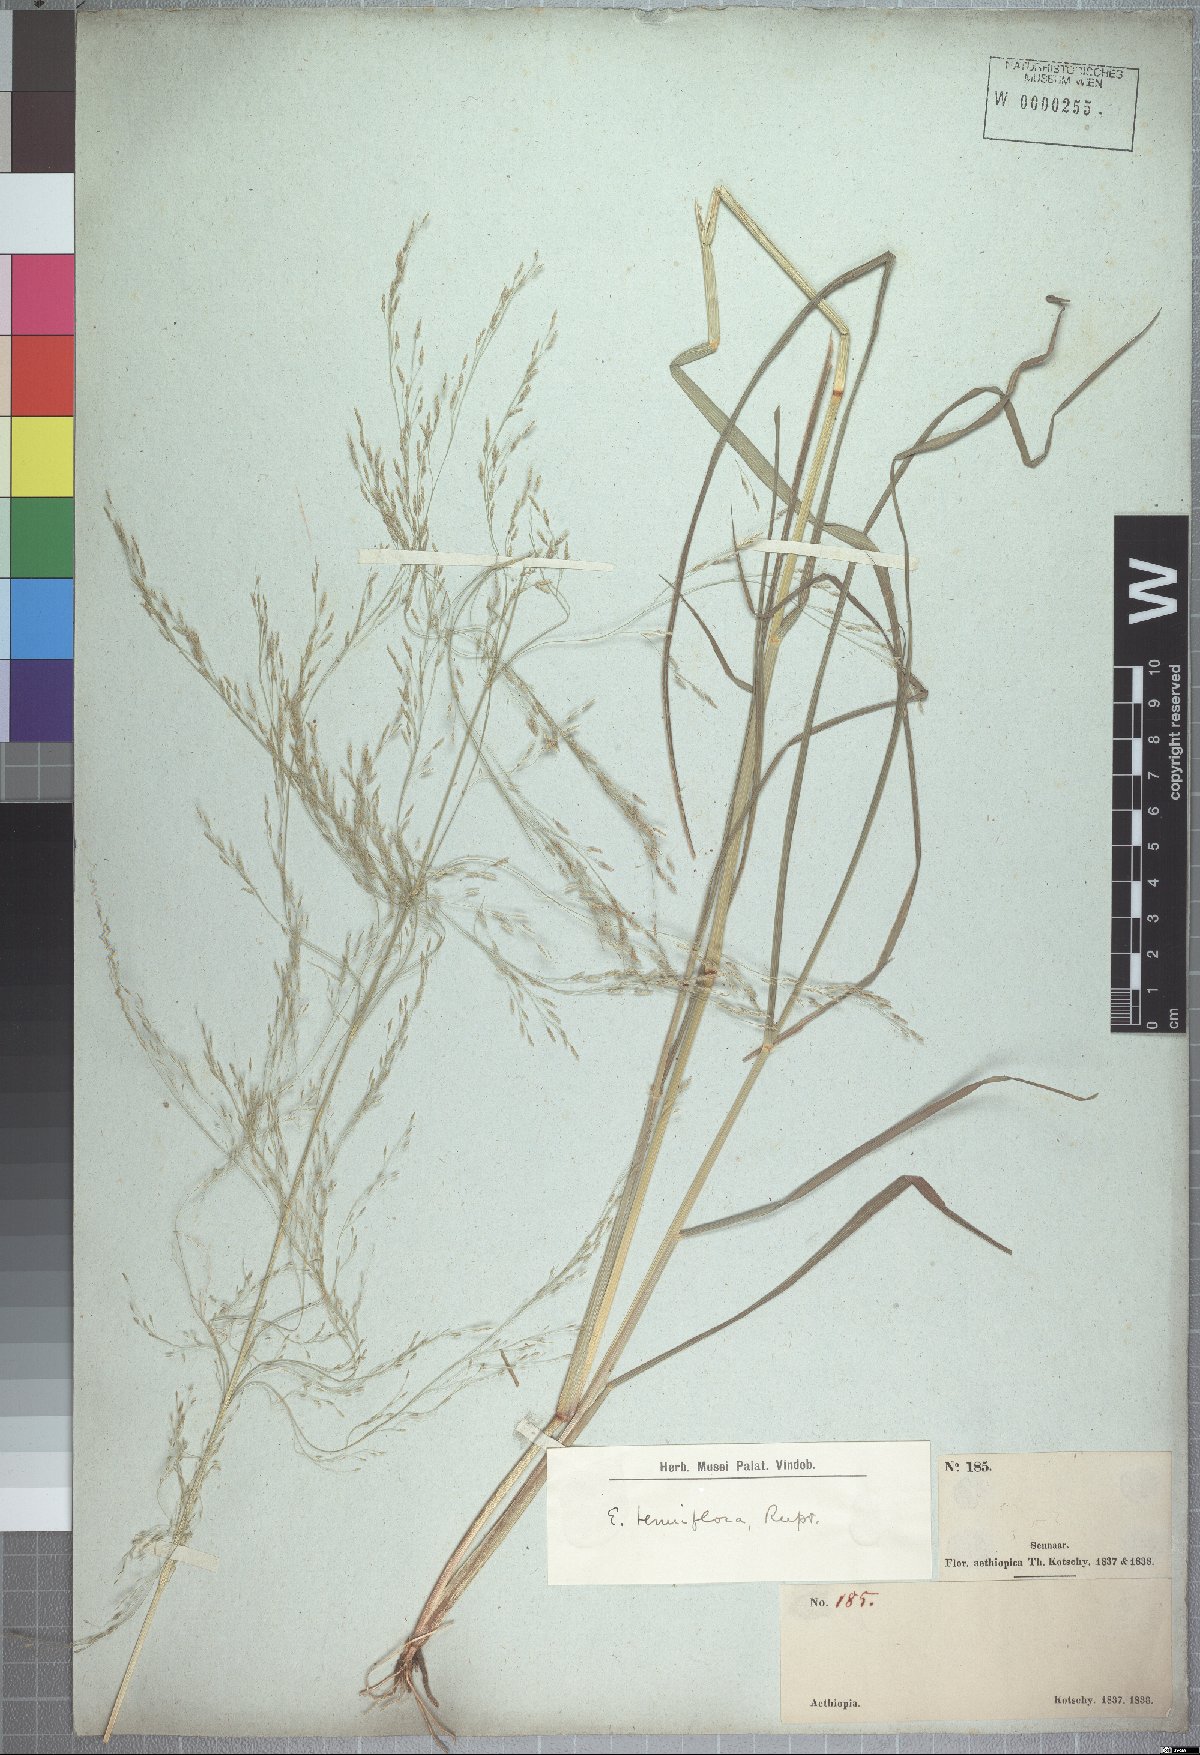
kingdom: Plantae
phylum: Tracheophyta
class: Liliopsida
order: Poales
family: Poaceae
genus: Eragrostis
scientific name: Eragrostis pilosa
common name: Indian lovegrass
